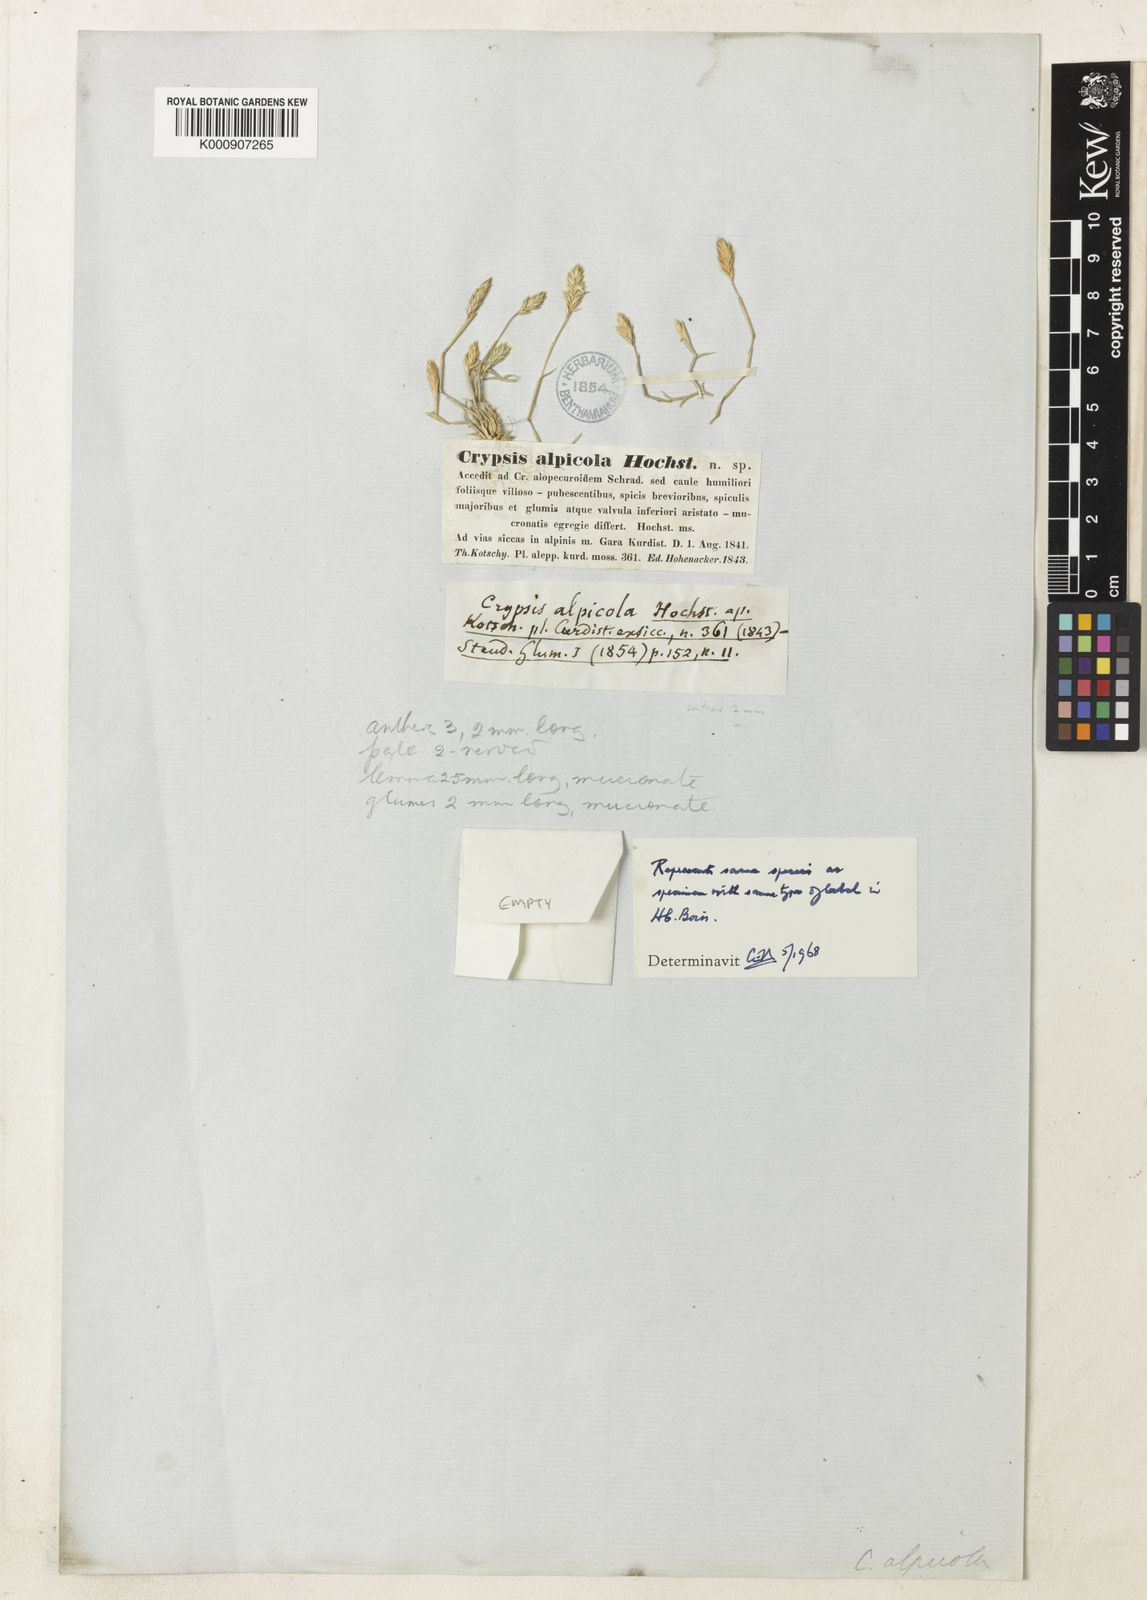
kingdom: Plantae
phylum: Tracheophyta
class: Liliopsida
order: Poales
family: Poaceae
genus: Sporobolus
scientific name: Sporobolus alopecuroides
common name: Foxtail pricklegrass
